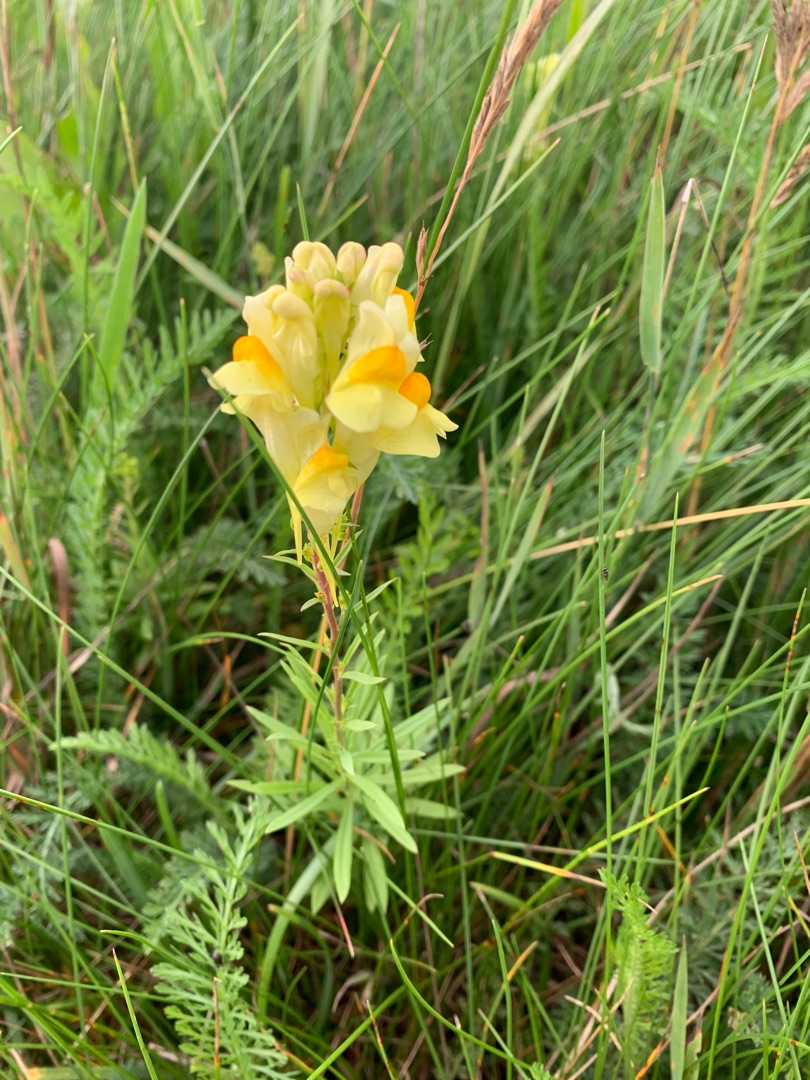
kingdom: Plantae
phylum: Tracheophyta
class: Magnoliopsida
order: Lamiales
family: Plantaginaceae
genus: Linaria
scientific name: Linaria vulgaris
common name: Almindelig torskemund
